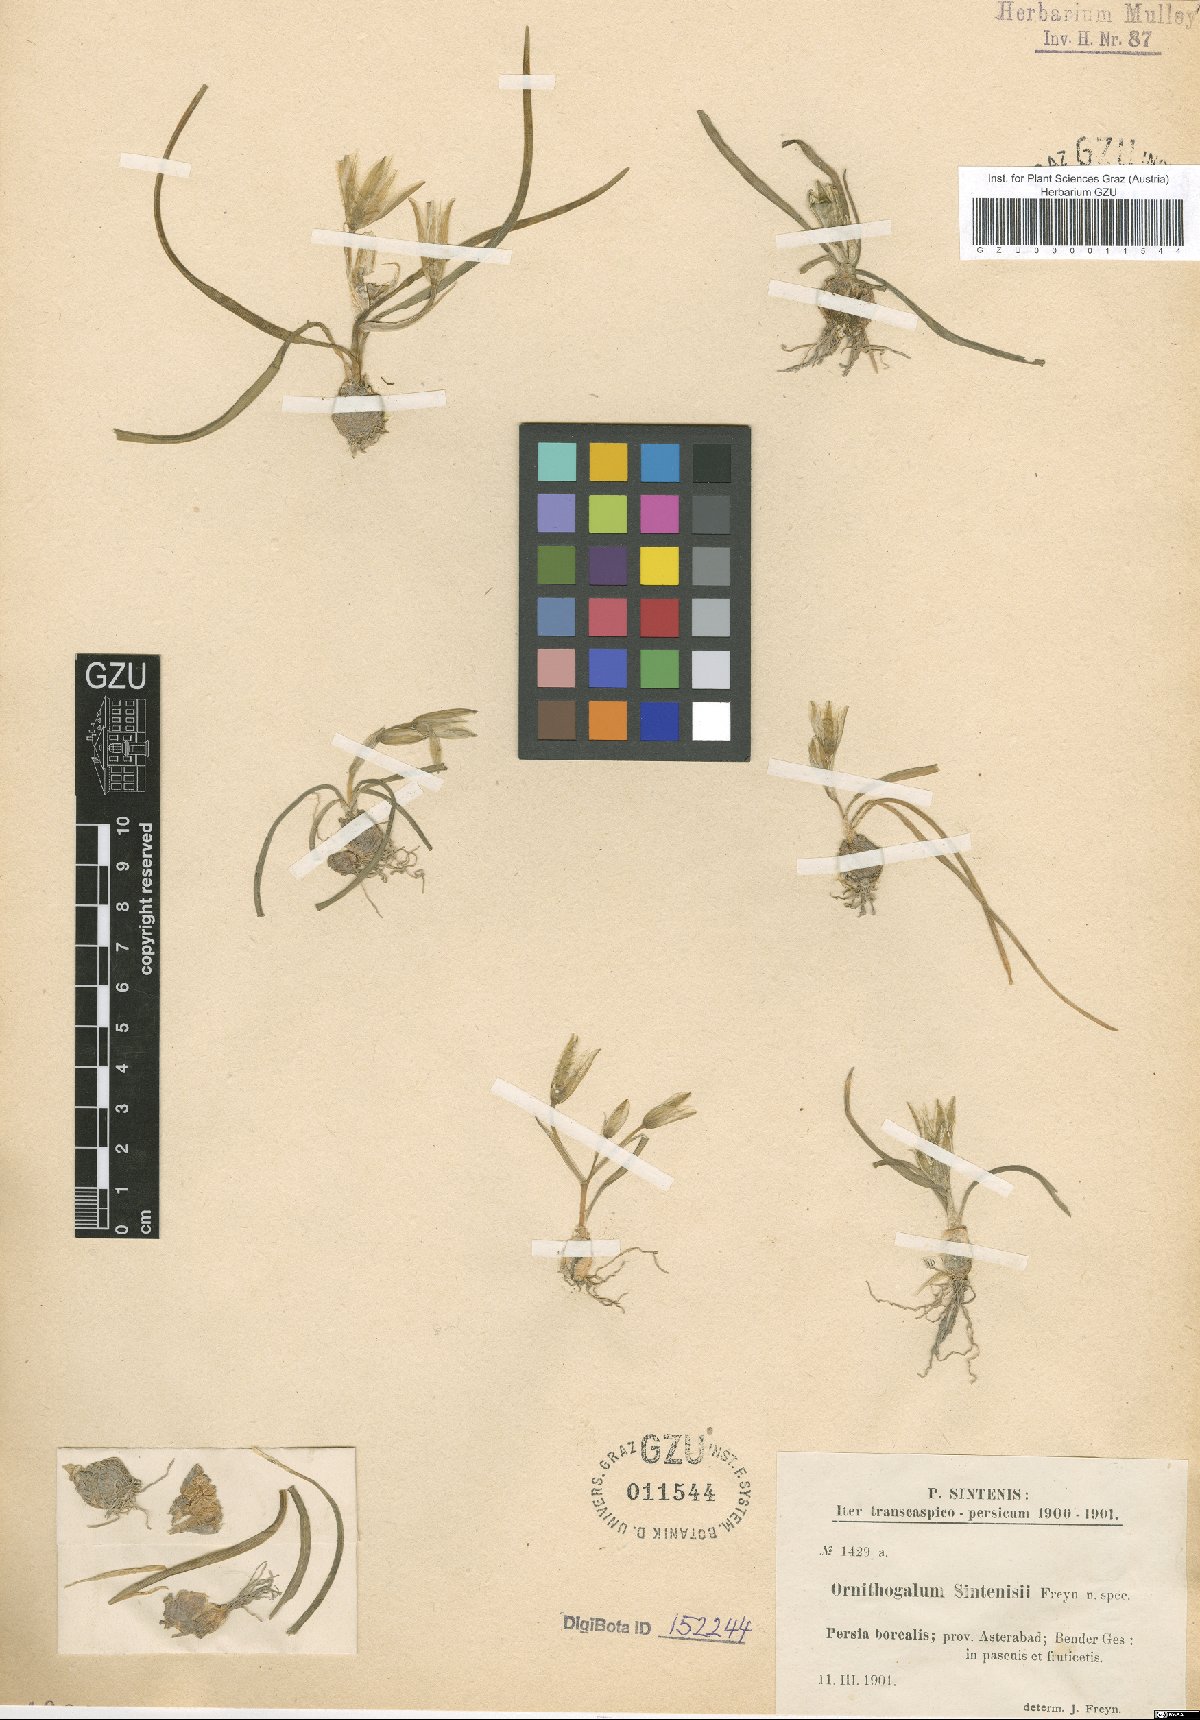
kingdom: Plantae
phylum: Tracheophyta
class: Liliopsida
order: Asparagales
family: Asparagaceae
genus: Ornithogalum
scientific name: Ornithogalum sintenisii
